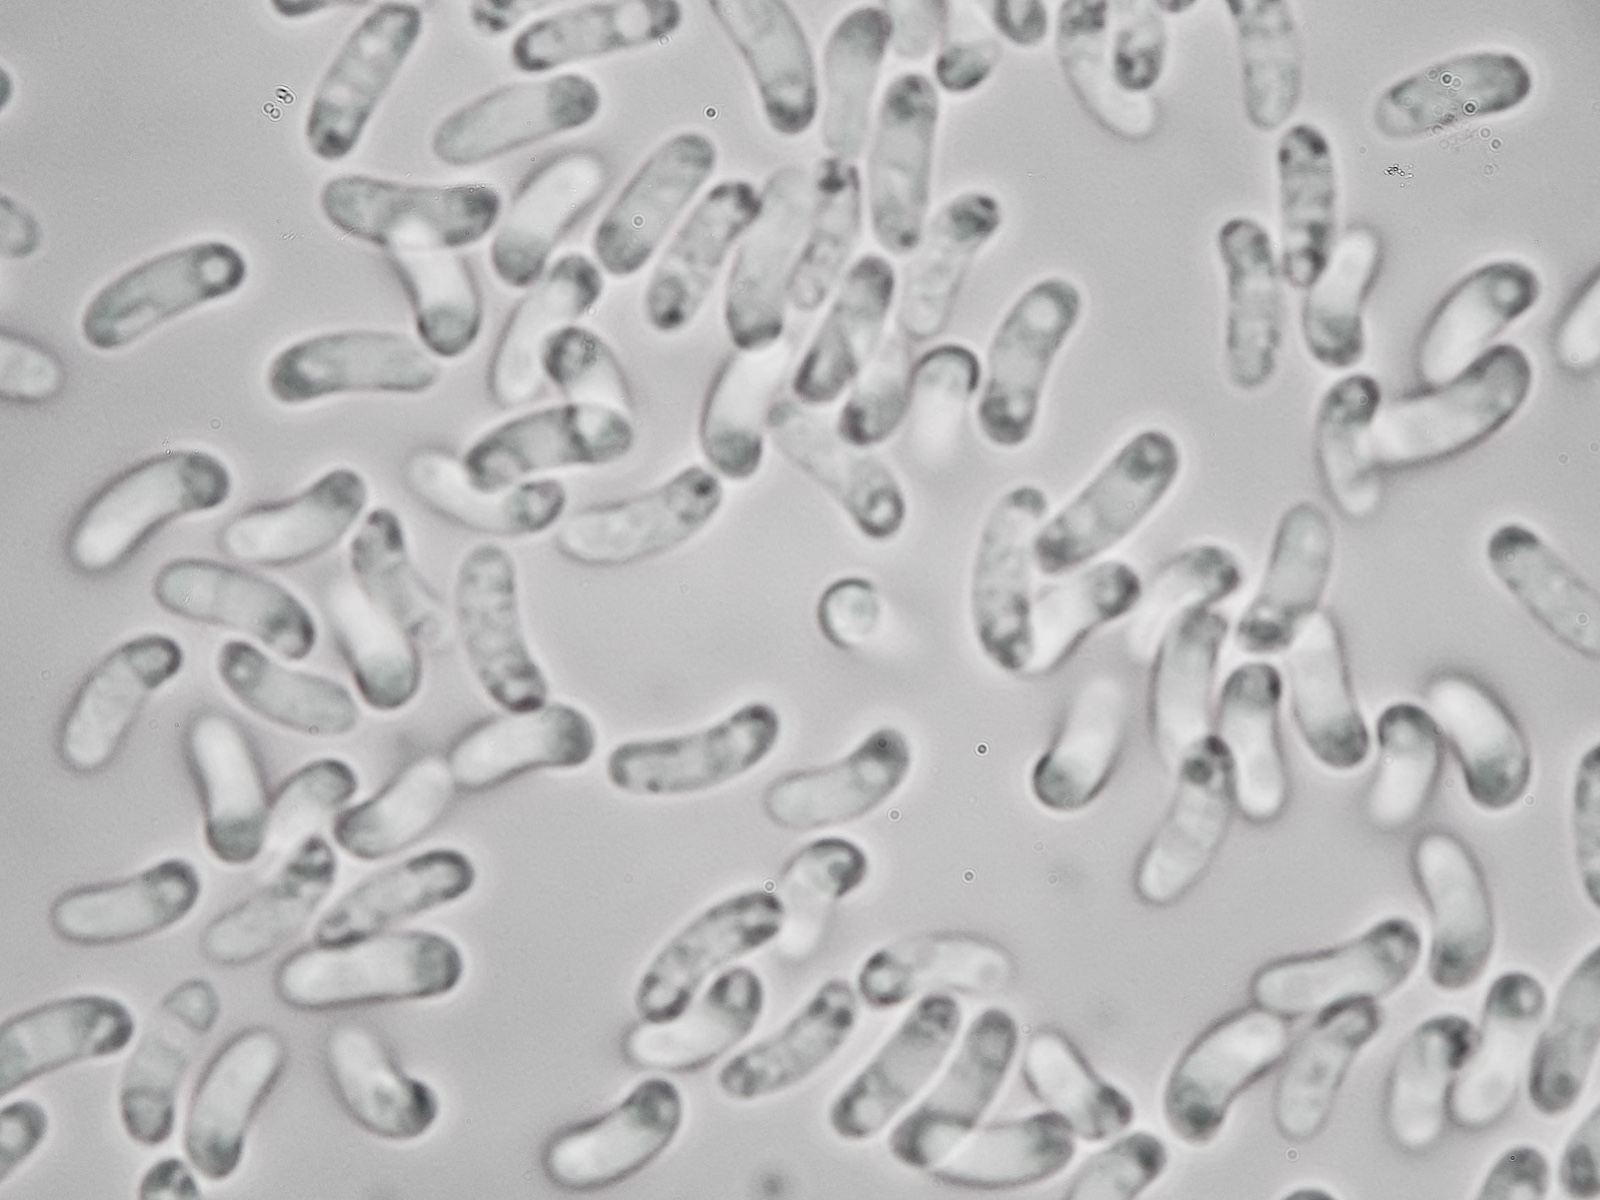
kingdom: Fungi
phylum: Basidiomycota
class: Agaricomycetes
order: Polyporales
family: Irpicaceae
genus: Ceriporia
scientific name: Ceriporia purpurea
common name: purpur-voksporesvamp
